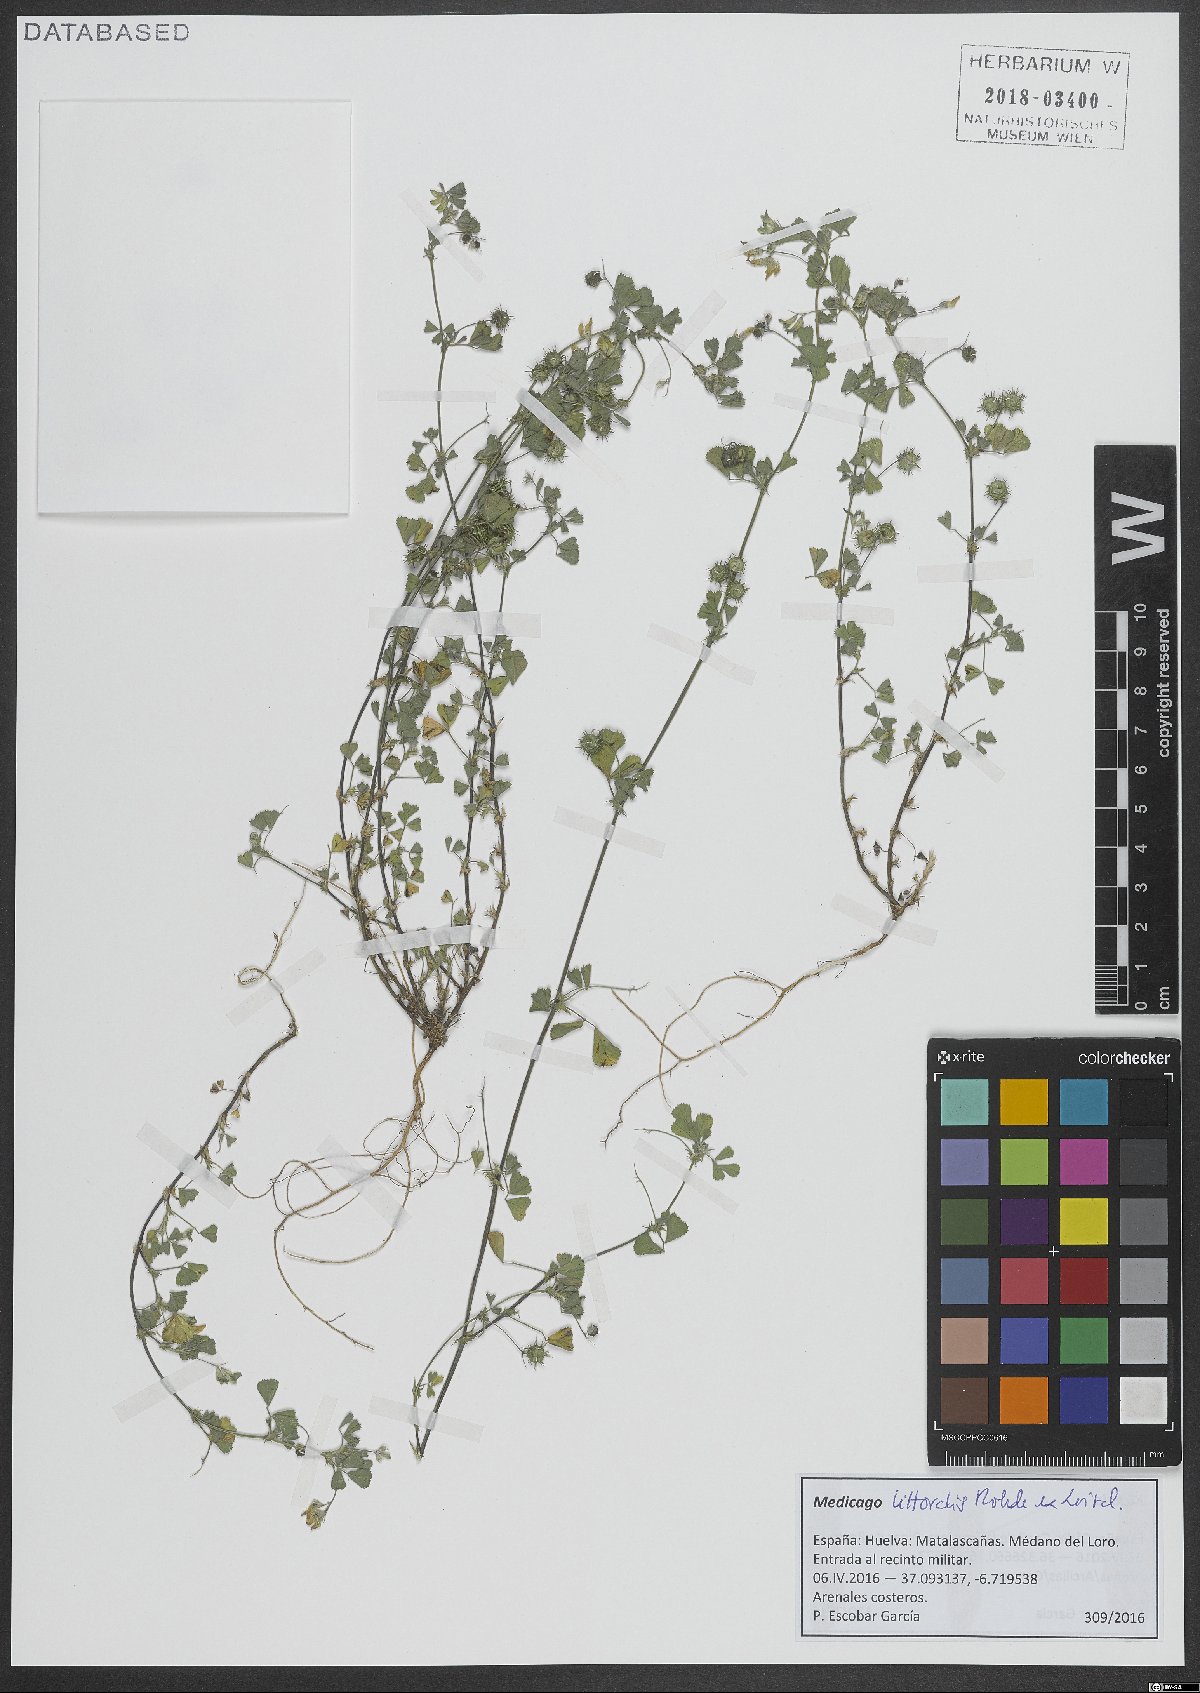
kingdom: Plantae
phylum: Tracheophyta
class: Magnoliopsida
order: Fabales
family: Fabaceae
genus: Medicago
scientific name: Medicago littoralis
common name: Shore medick
